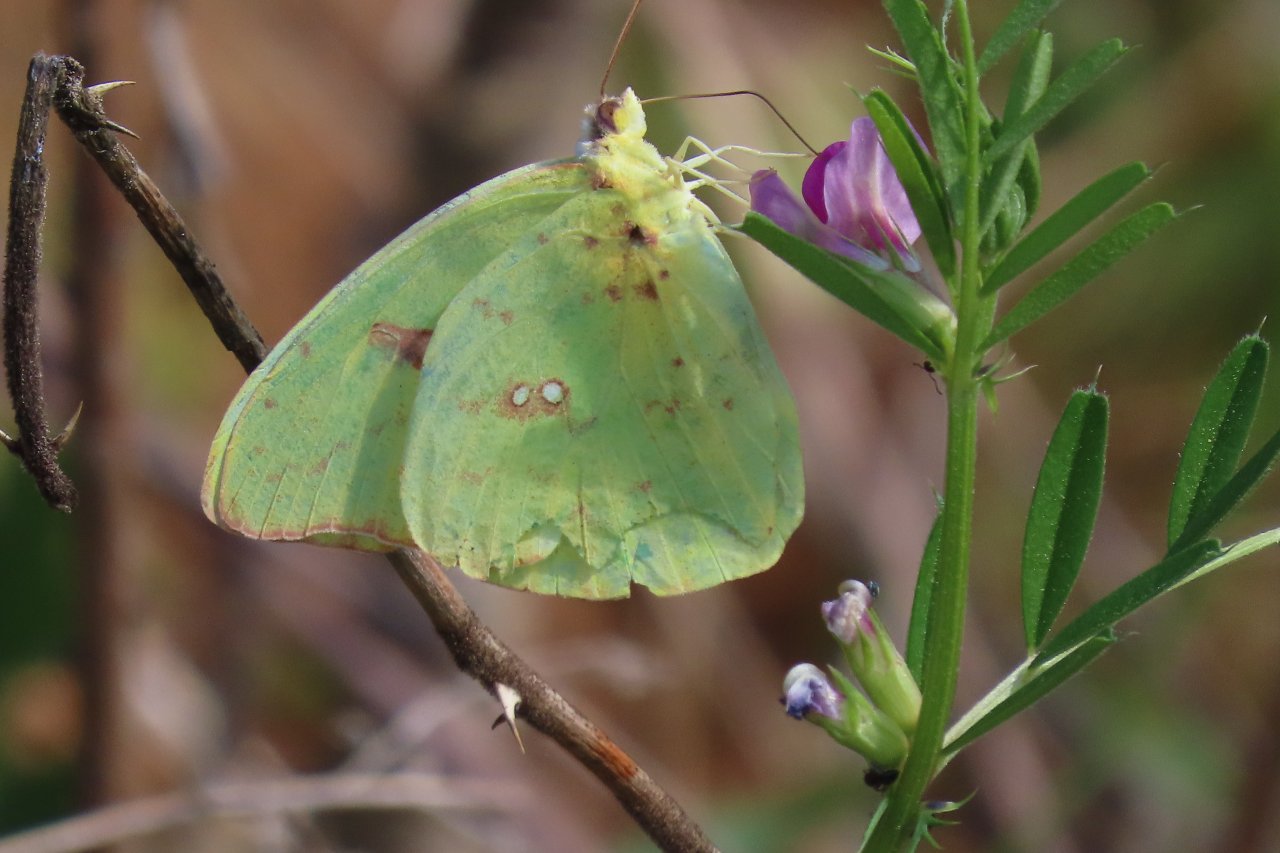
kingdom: Animalia
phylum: Arthropoda
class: Insecta
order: Lepidoptera
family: Pieridae
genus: Phoebis
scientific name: Phoebis sennae
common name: Cloudless Sulphur
